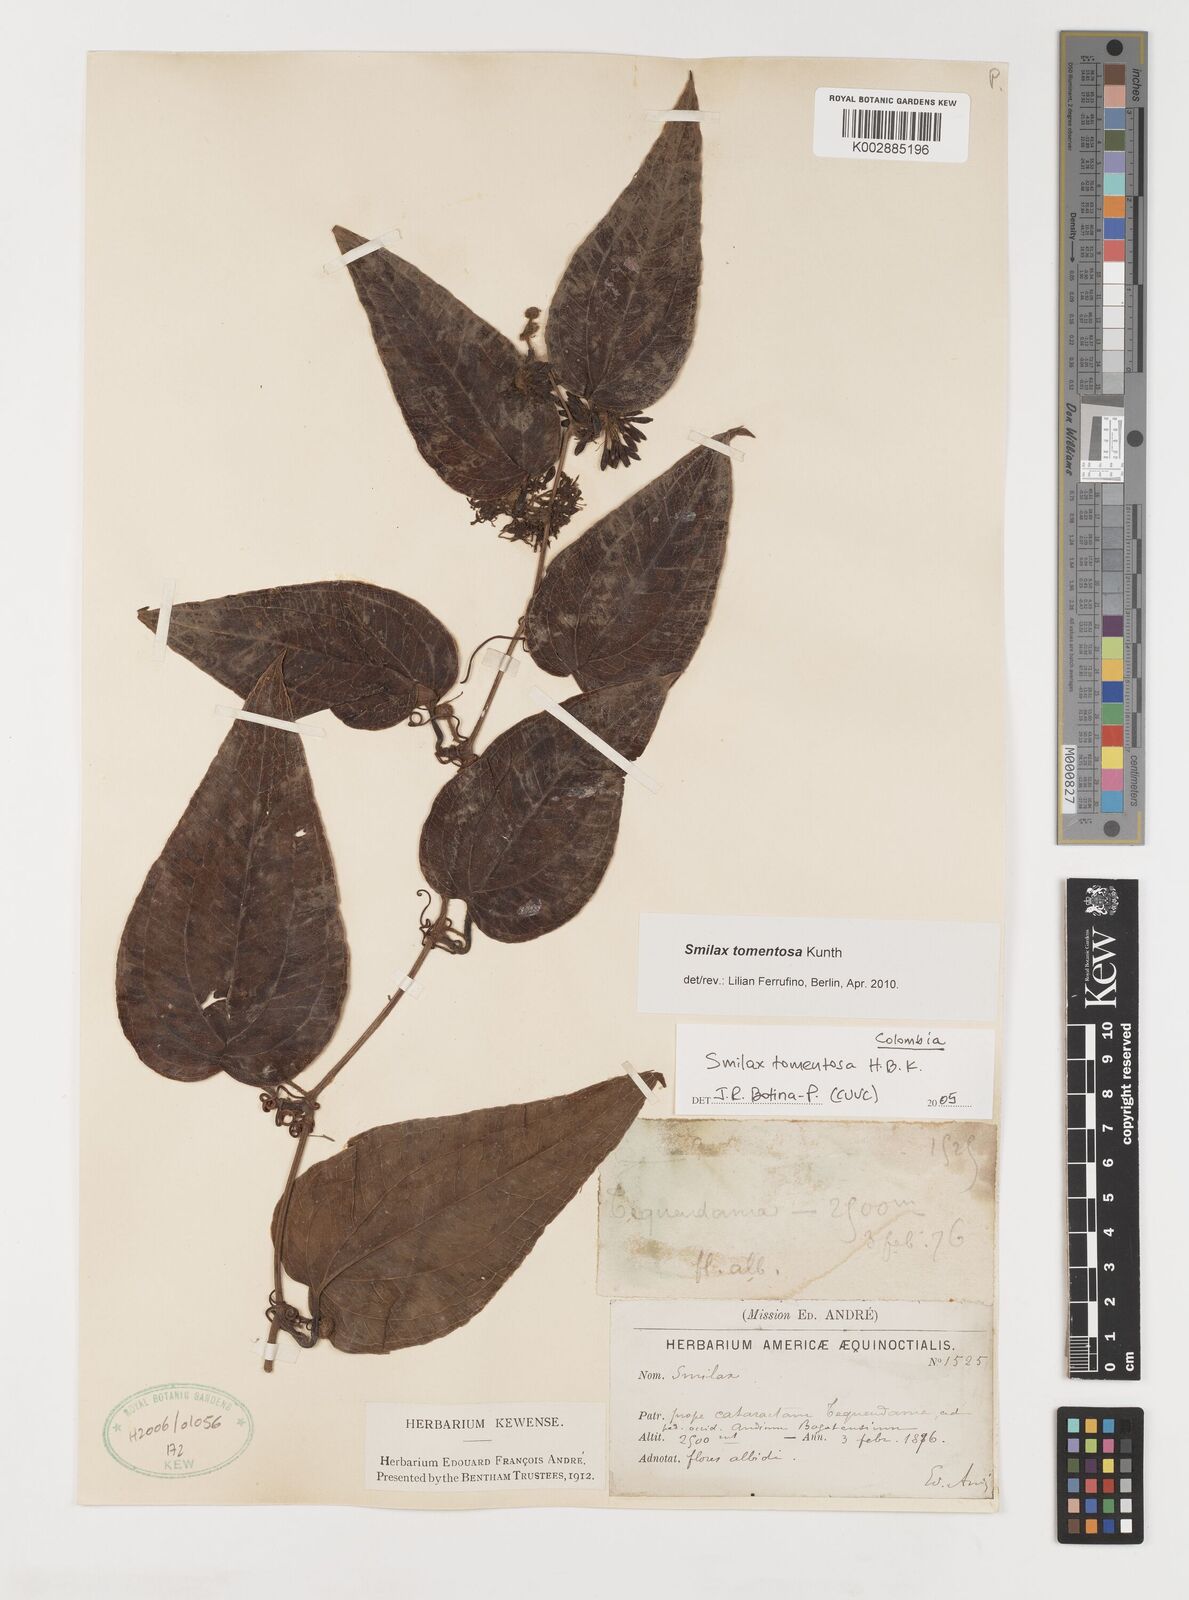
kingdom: Plantae
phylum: Tracheophyta
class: Liliopsida
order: Liliales
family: Smilacaceae
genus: Smilax
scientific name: Smilax tomentosa
